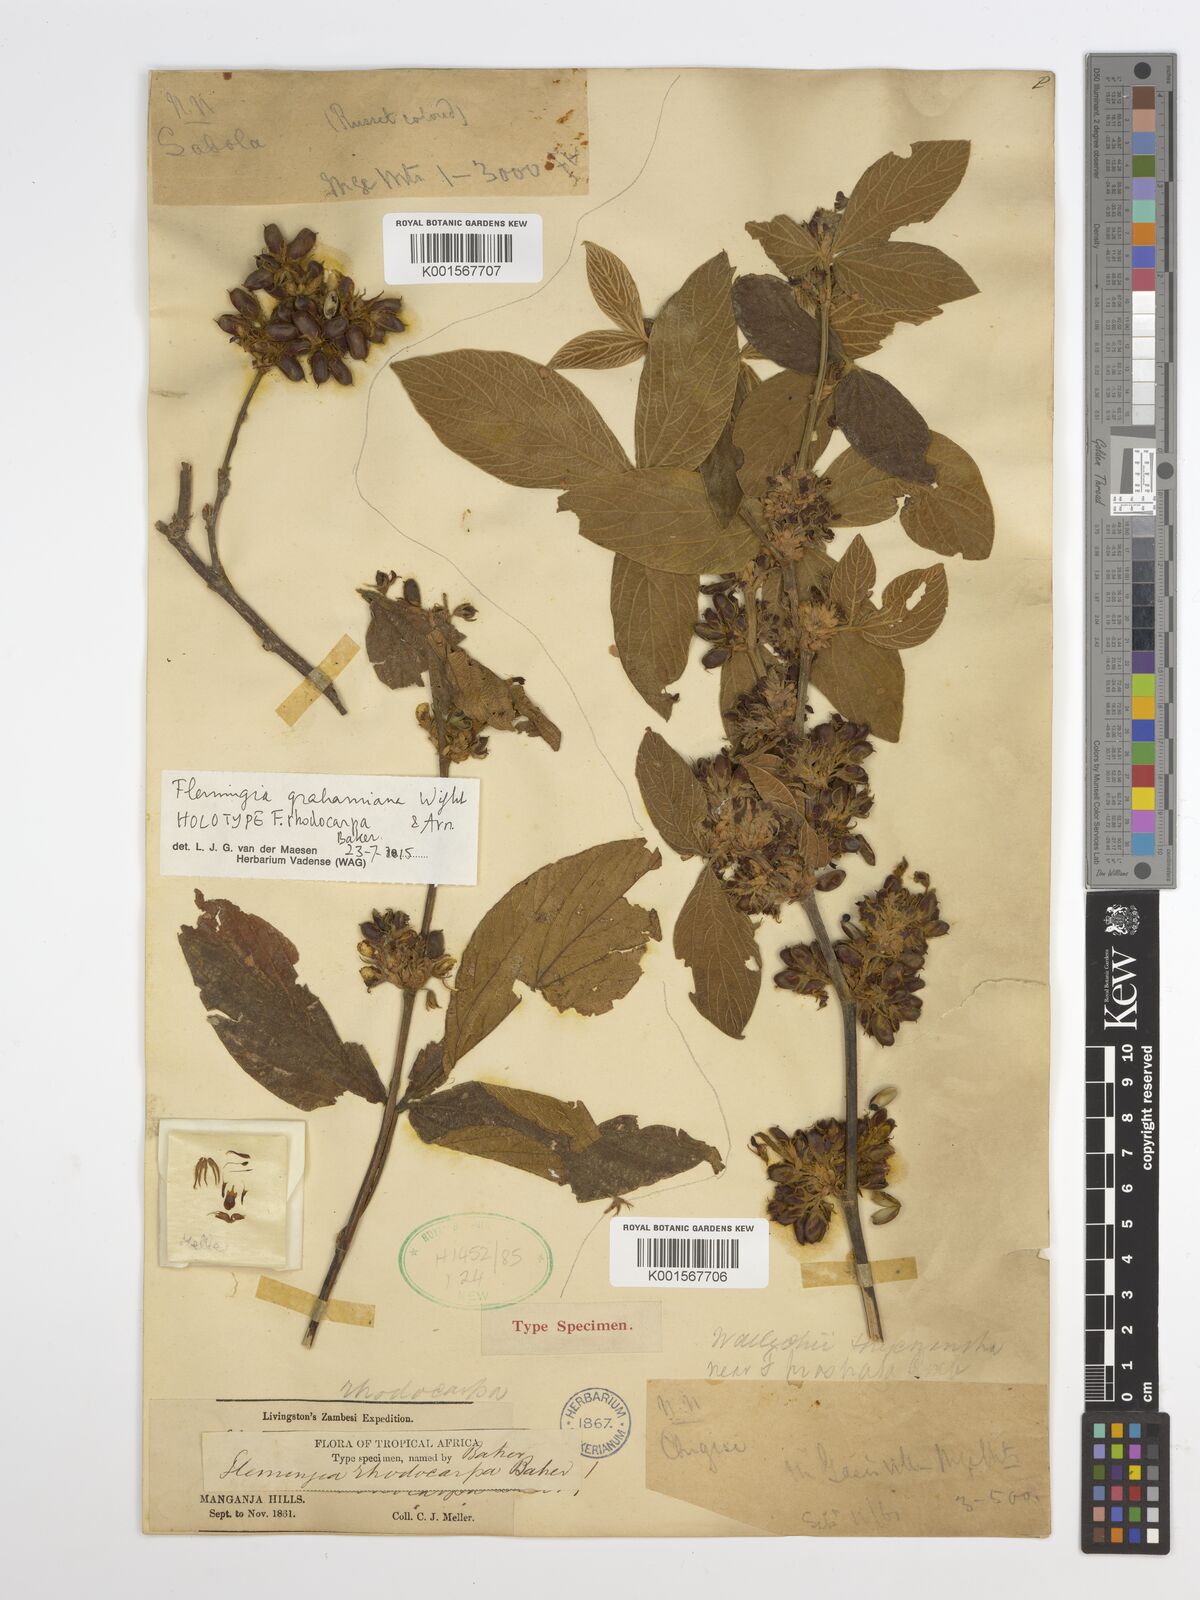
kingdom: Plantae
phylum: Tracheophyta
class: Magnoliopsida
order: Fabales
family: Fabaceae
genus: Flemingia
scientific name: Flemingia grahamiana
